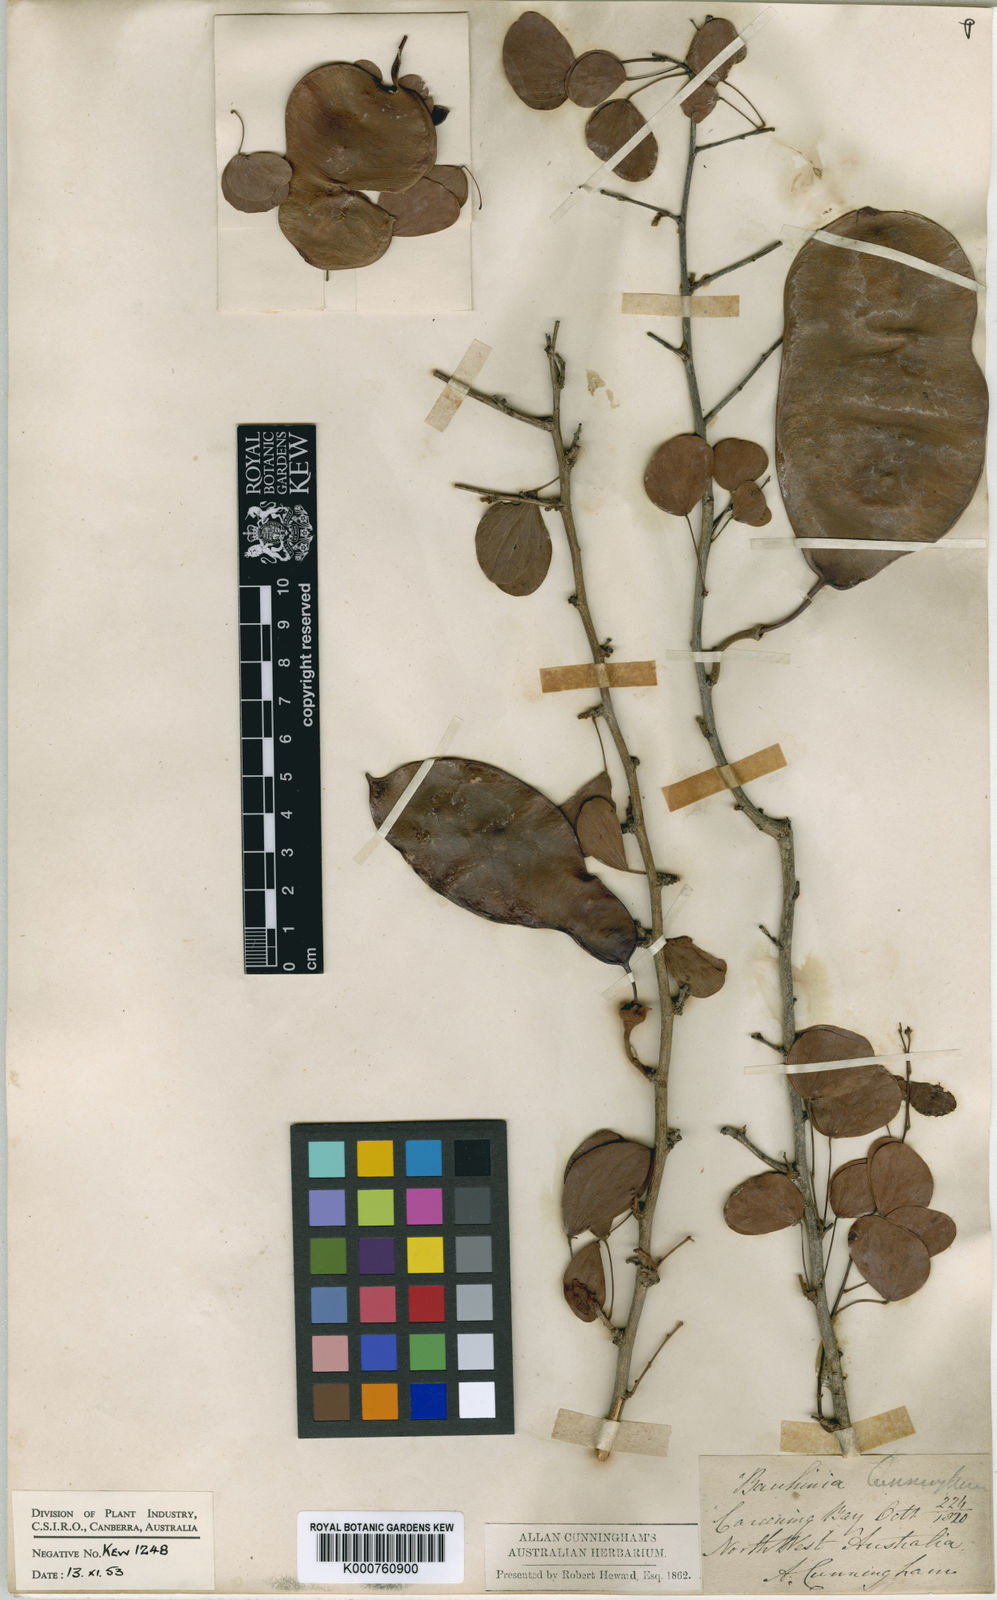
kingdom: Plantae
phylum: Tracheophyta
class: Magnoliopsida
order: Fabales
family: Fabaceae
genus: Lysiphyllum
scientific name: Lysiphyllum cunninghamii
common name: Kimberley bauhinia
